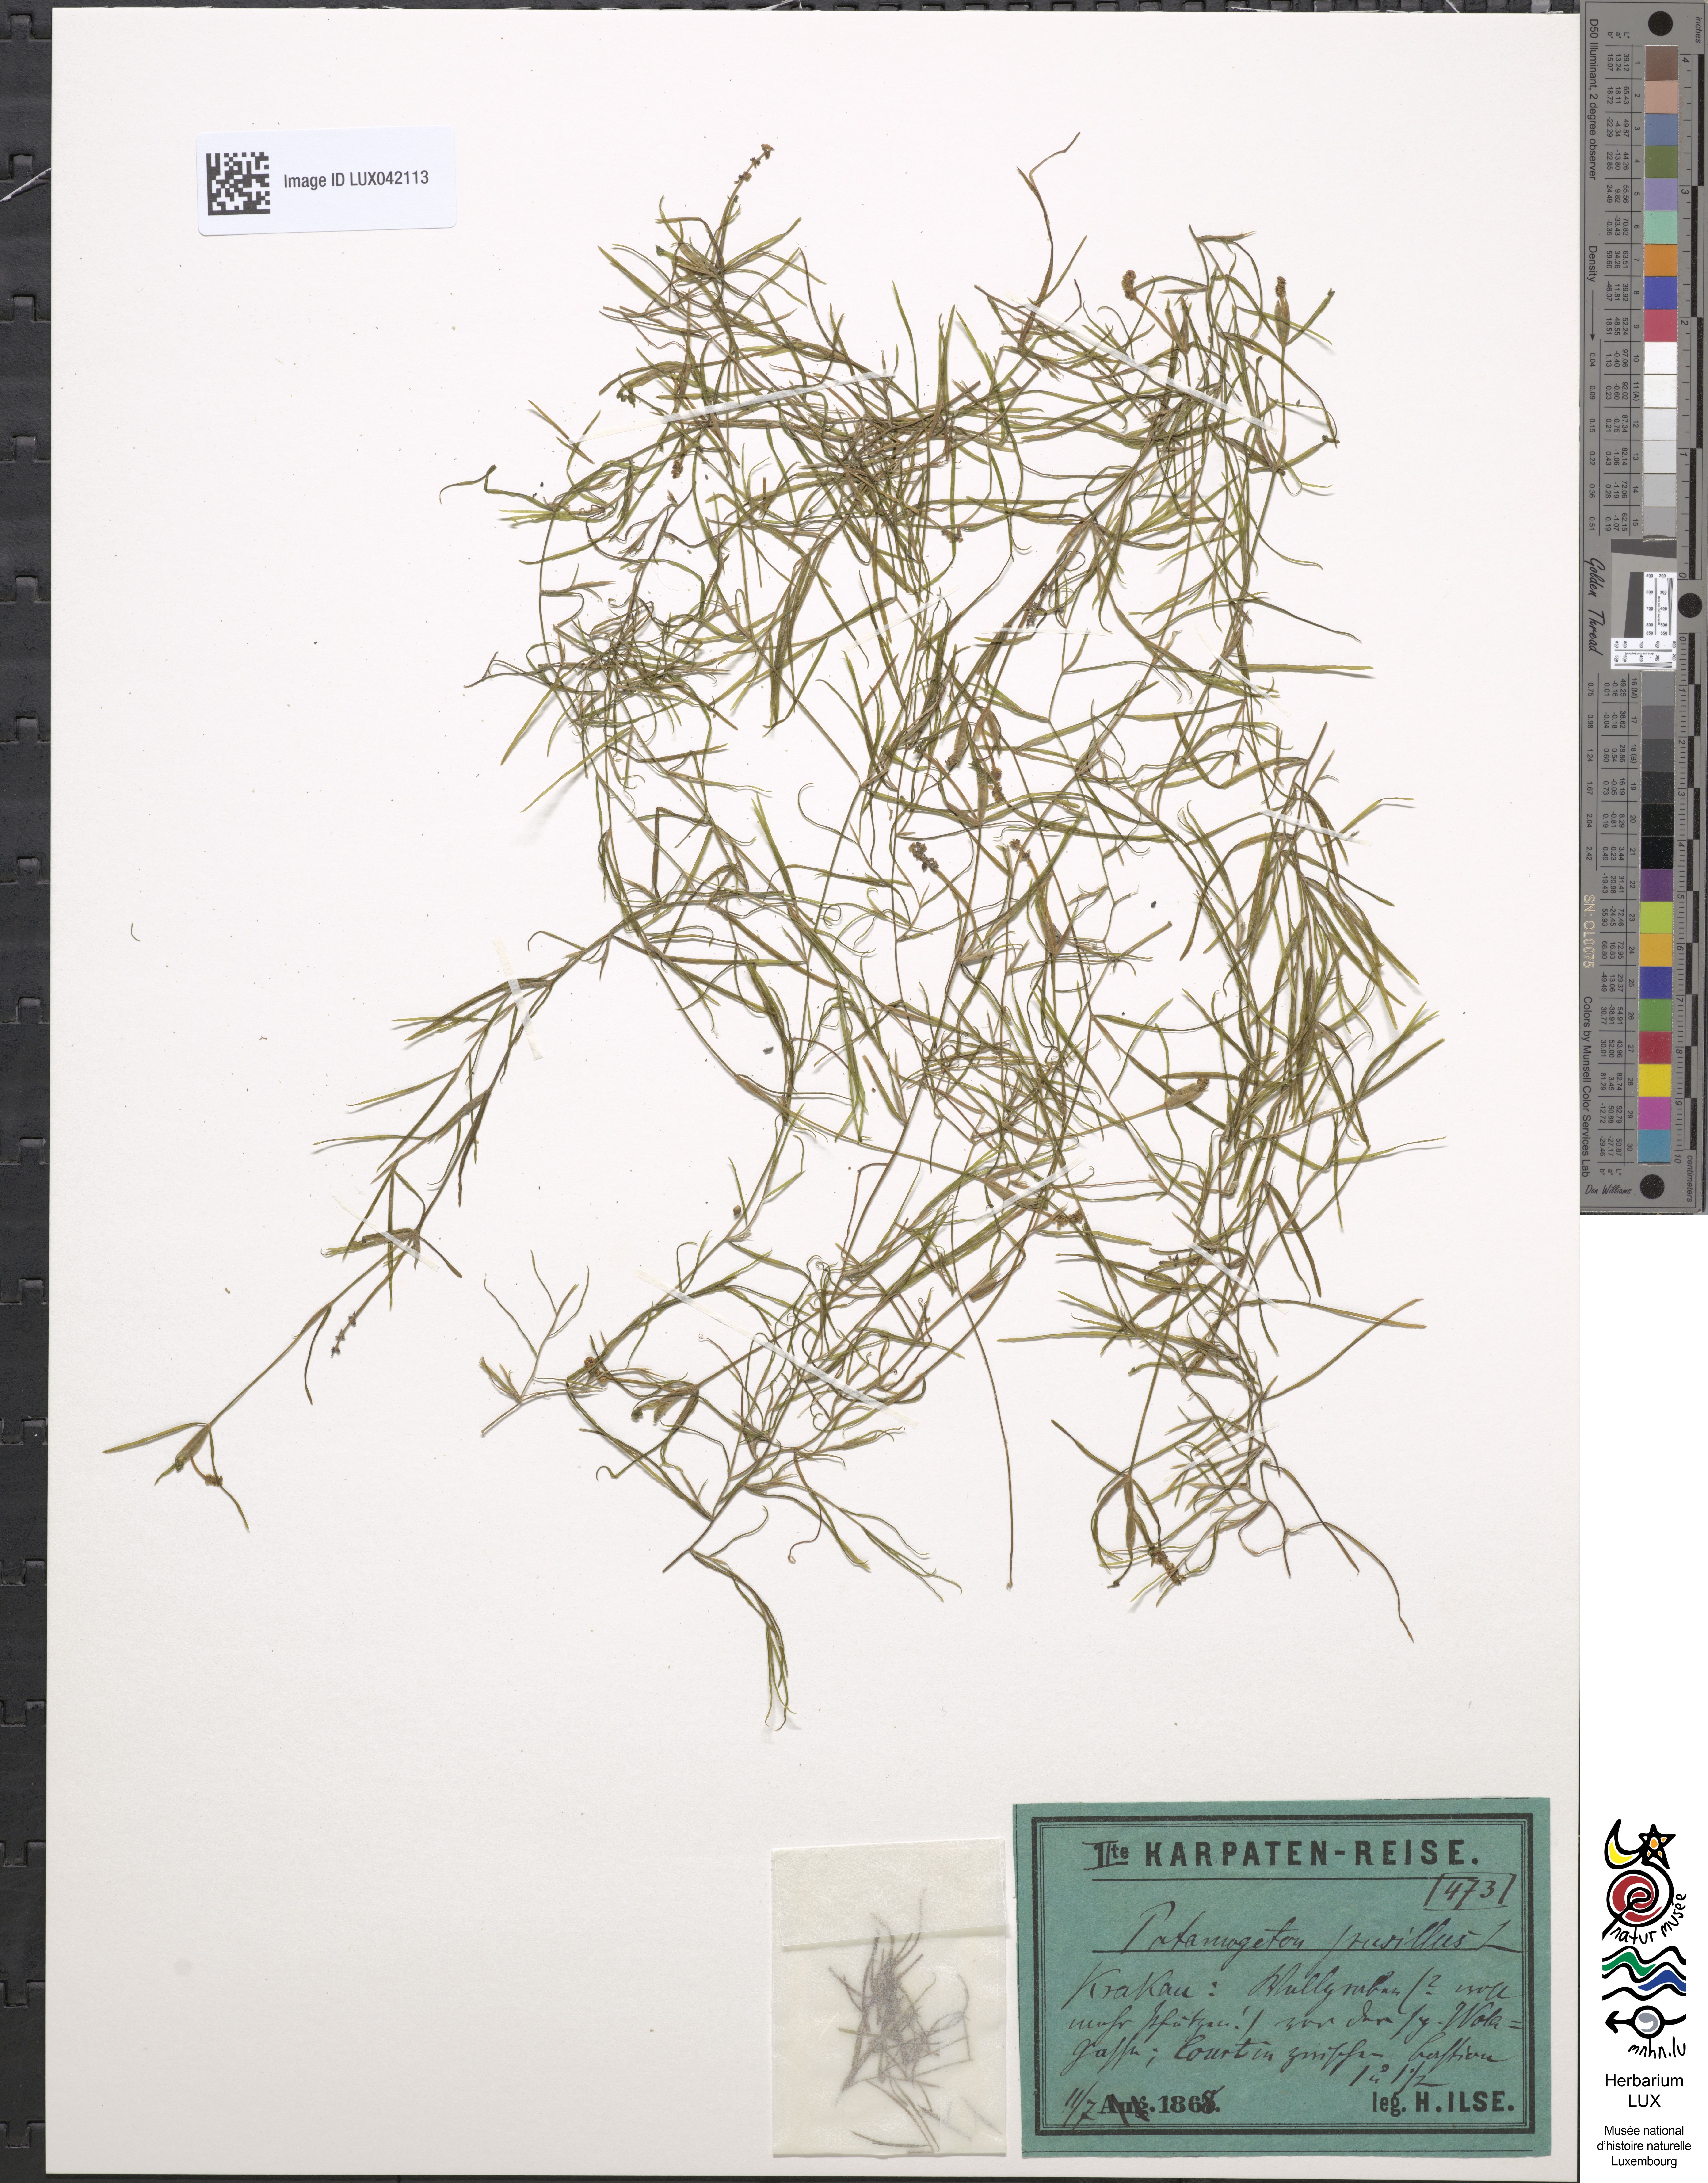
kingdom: Plantae
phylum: Tracheophyta
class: Liliopsida
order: Alismatales
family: Potamogetonaceae
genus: Potamogeton
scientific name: Potamogeton pusillus
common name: Lesser pondweed
